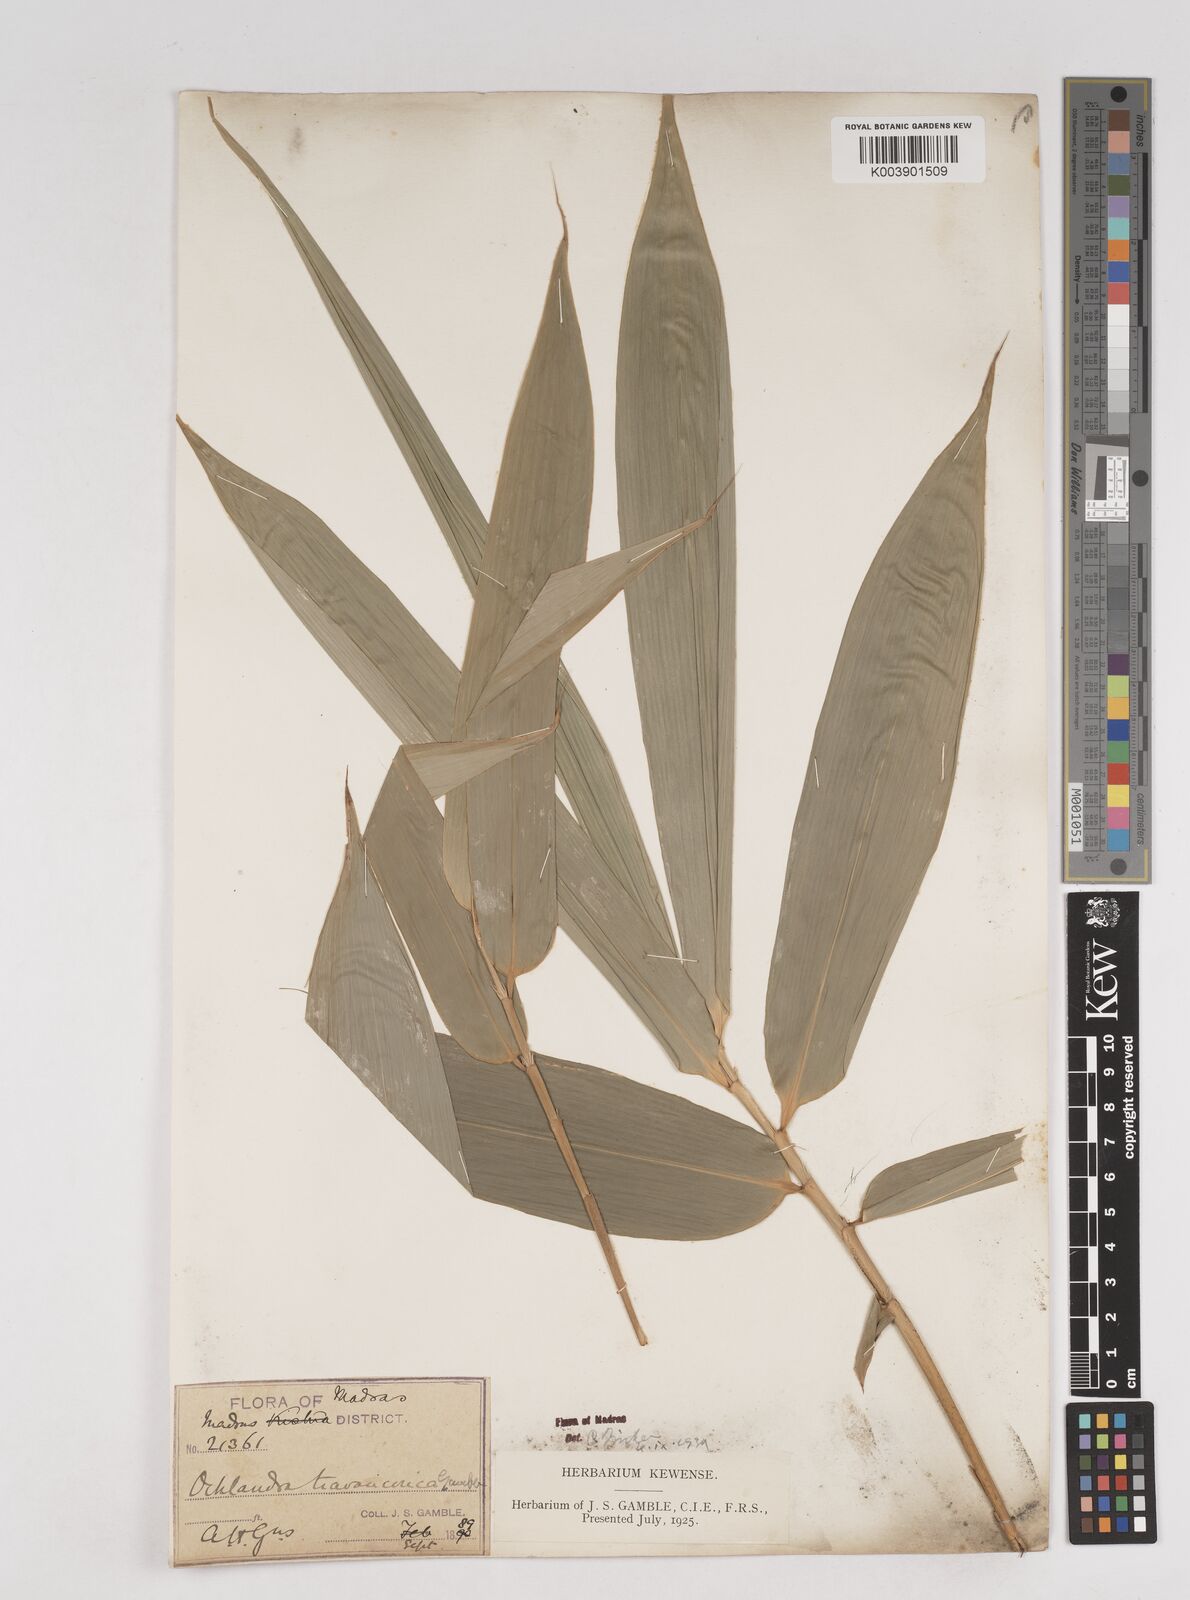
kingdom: Plantae
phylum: Tracheophyta
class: Liliopsida
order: Poales
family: Poaceae
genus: Ochlandra
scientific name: Ochlandra travancorica
